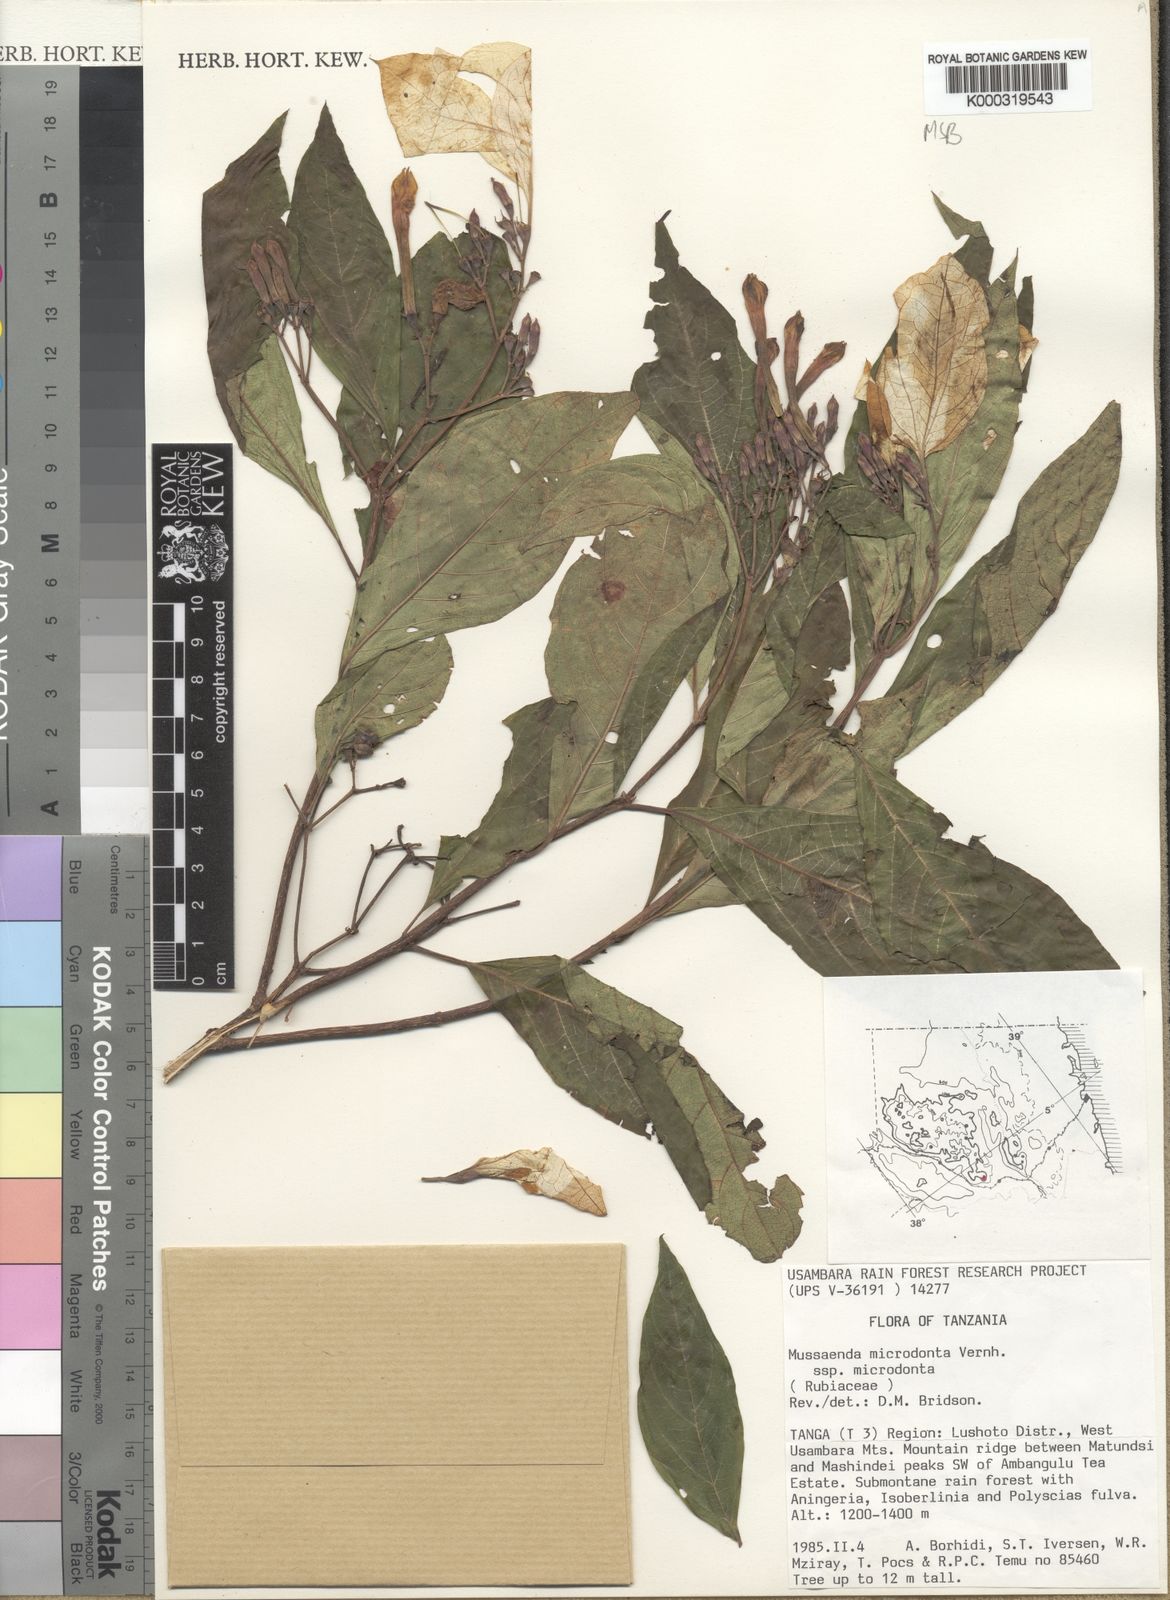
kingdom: Plantae
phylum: Tracheophyta
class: Magnoliopsida
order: Gentianales
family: Rubiaceae
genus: Mussaenda
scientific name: Mussaenda microdonta
